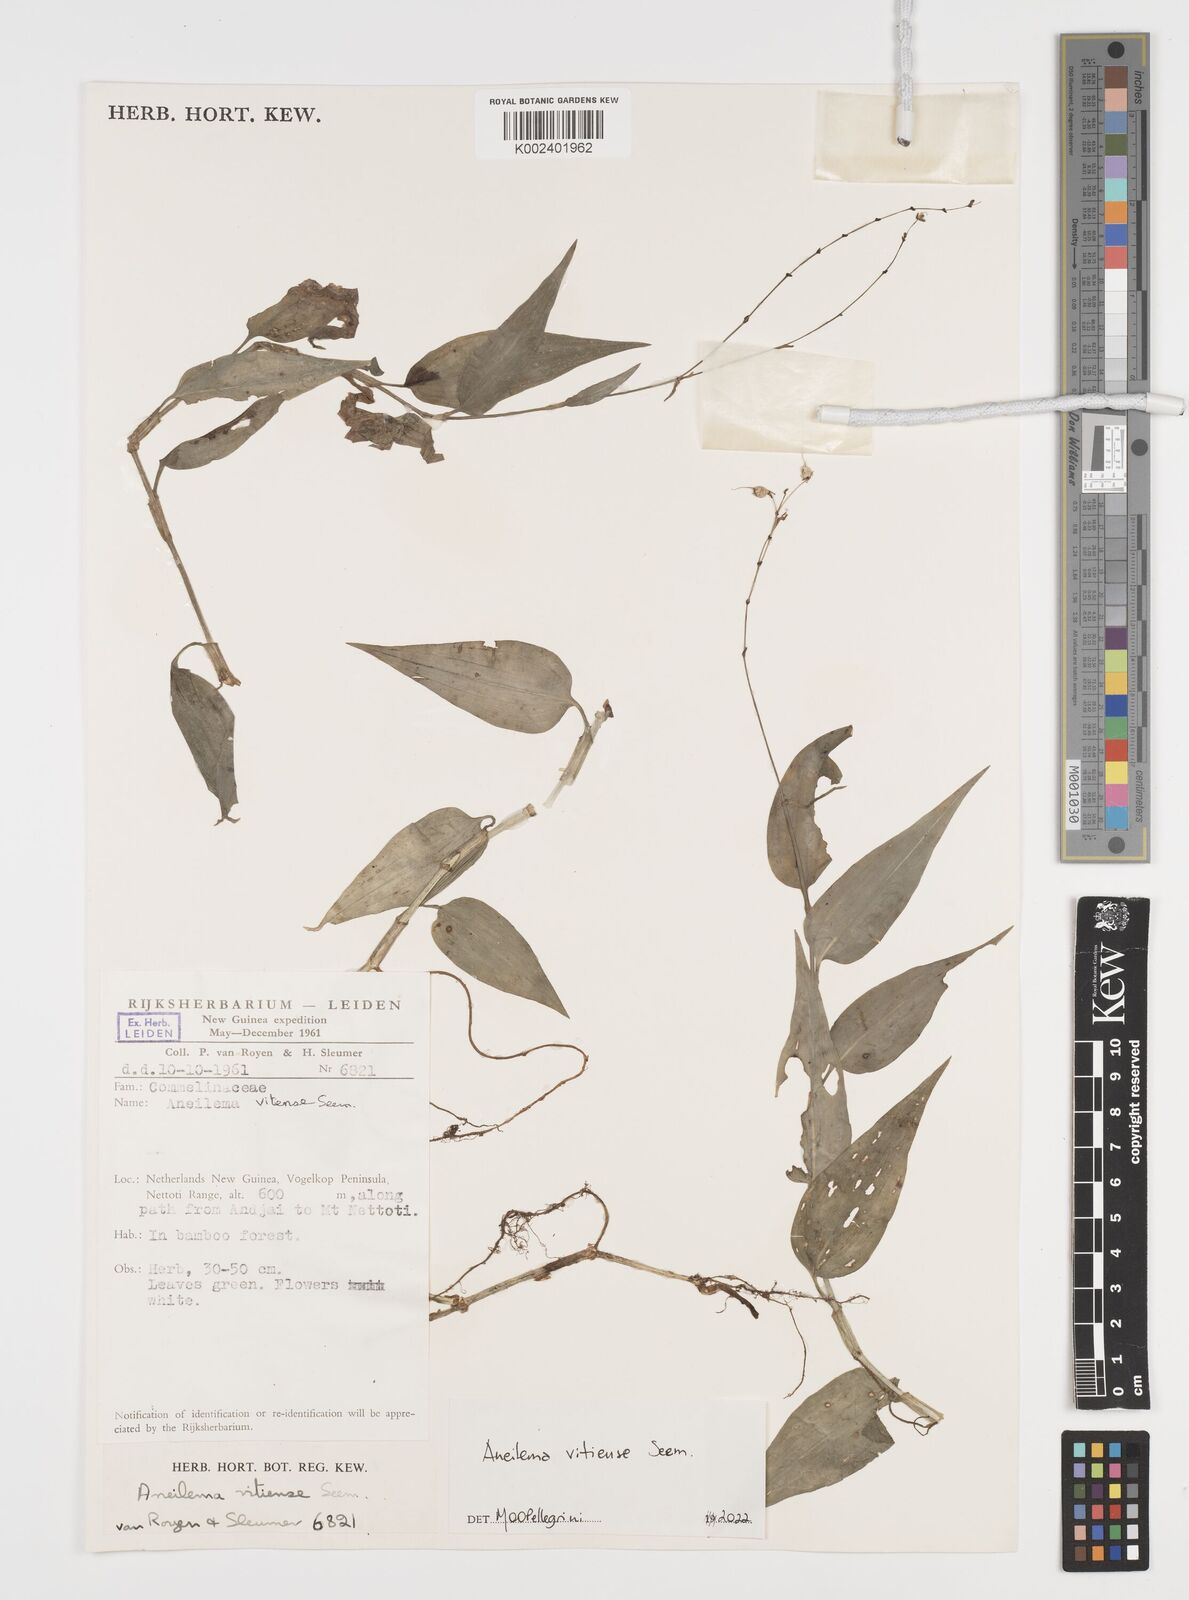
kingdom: Plantae
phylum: Tracheophyta
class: Liliopsida
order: Commelinales
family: Commelinaceae
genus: Rhopalephora
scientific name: Rhopalephora vitiensis
